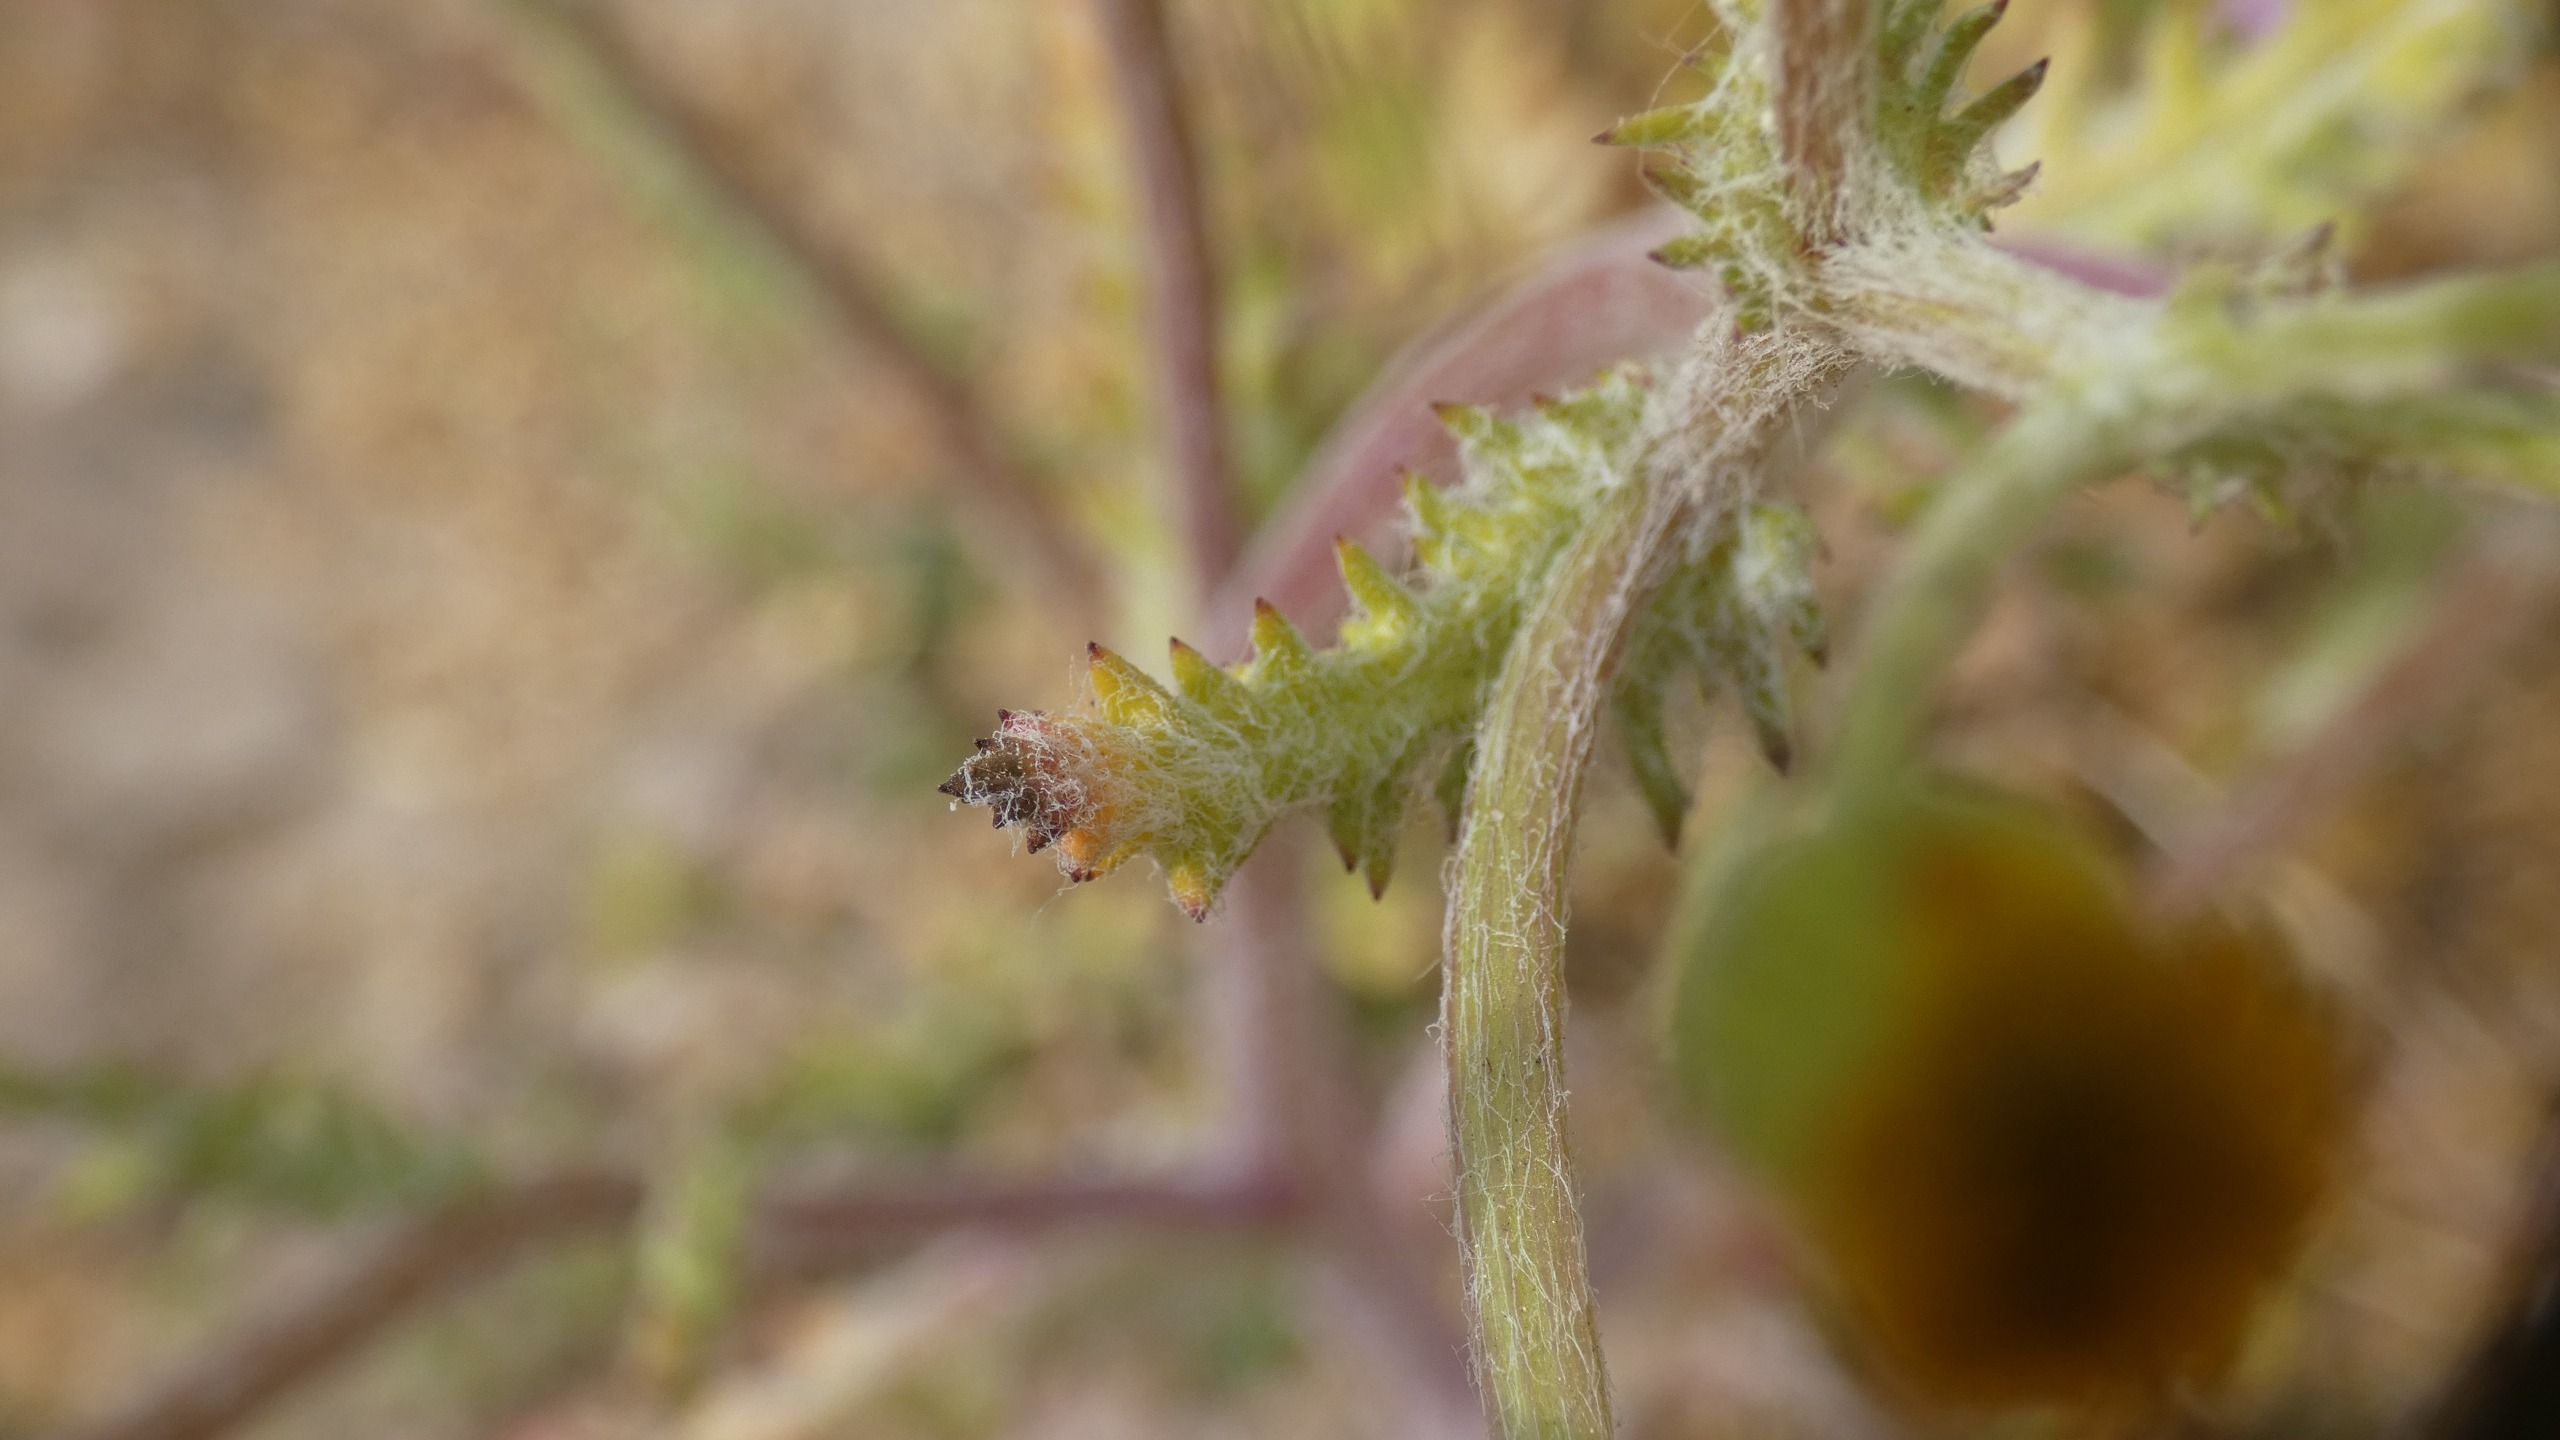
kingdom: Plantae
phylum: Tracheophyta
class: Magnoliopsida
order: Asterales
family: Asteraceae
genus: Senecio
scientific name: Senecio leucanthemifolius
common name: Vår-brandbæger
